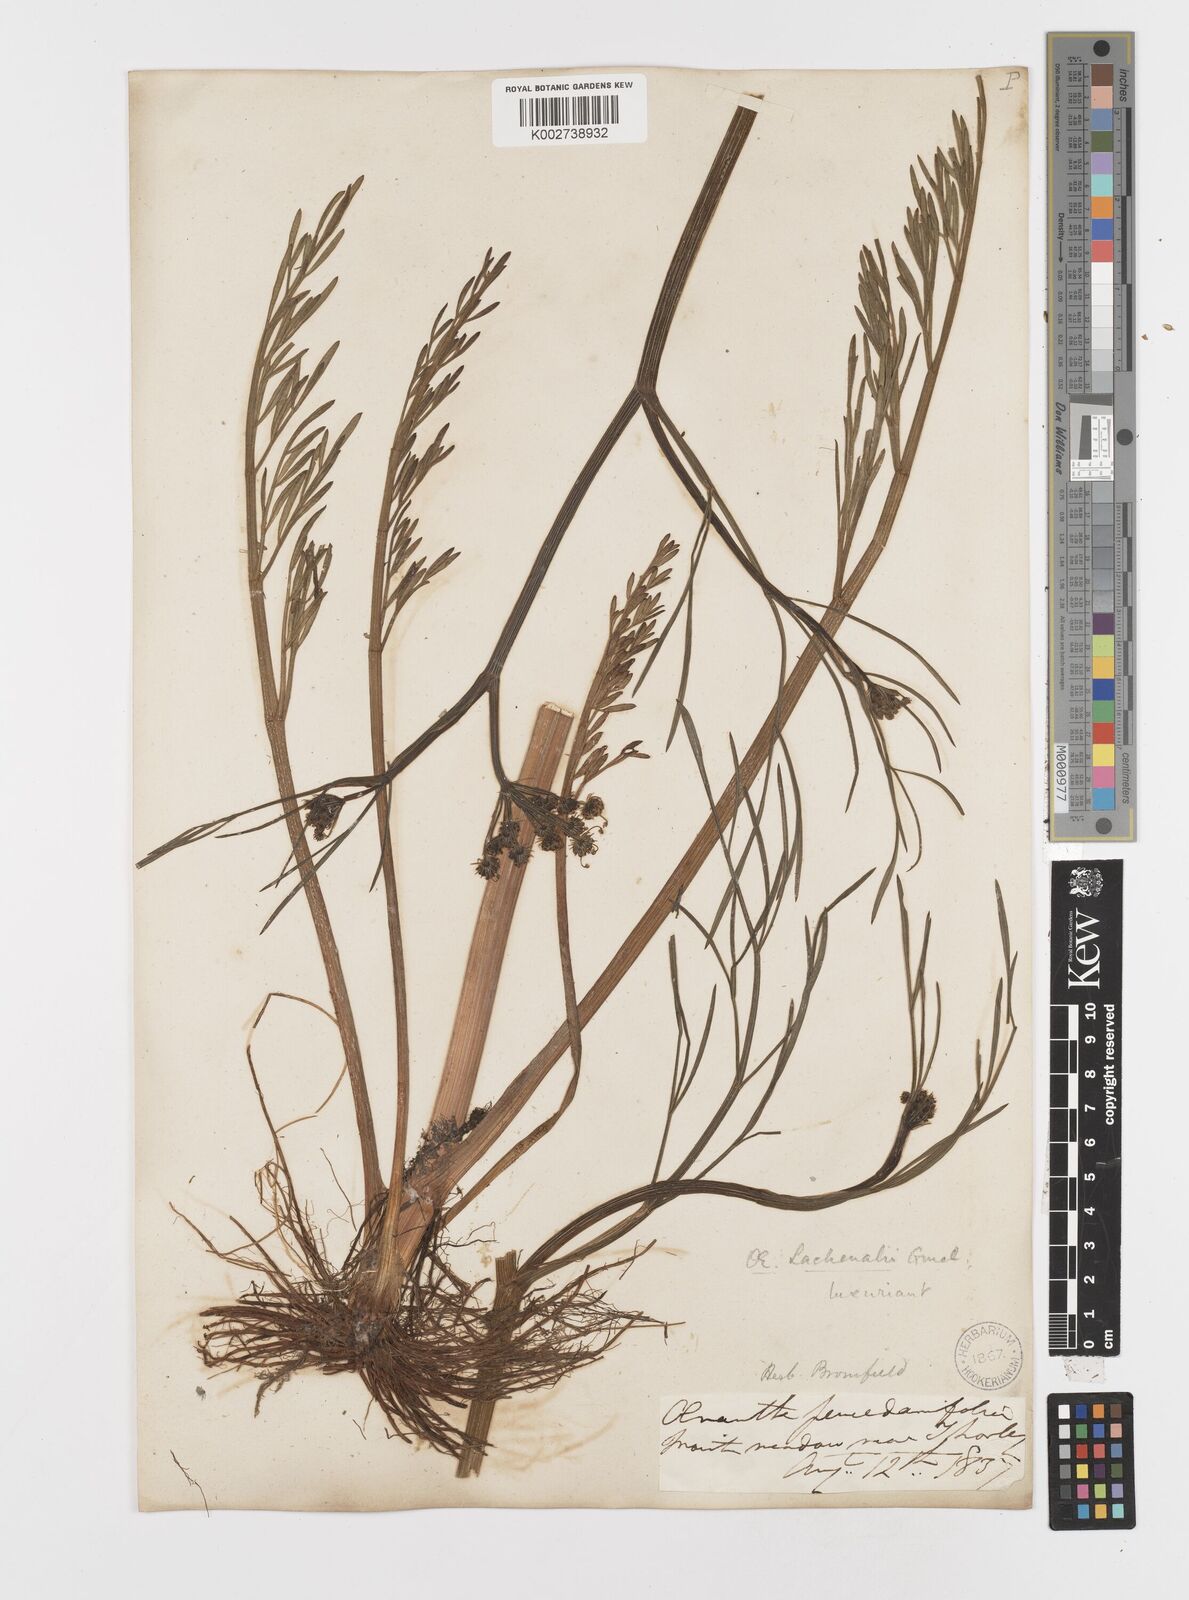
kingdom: Plantae
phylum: Tracheophyta
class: Magnoliopsida
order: Apiales
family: Apiaceae
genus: Oenanthe
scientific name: Oenanthe lachenalii
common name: Parsley water-dropwort
